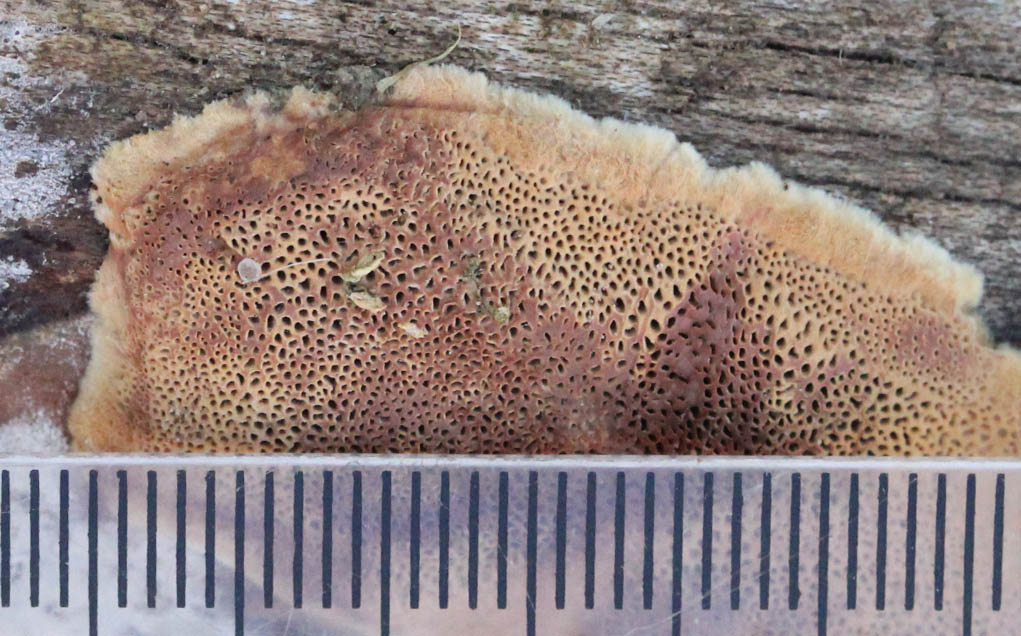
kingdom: Fungi
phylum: Basidiomycota
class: Agaricomycetes
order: Polyporales
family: Phanerochaetaceae
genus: Hapalopilus
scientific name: Hapalopilus rutilans
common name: rødlig okkerporesvamp
